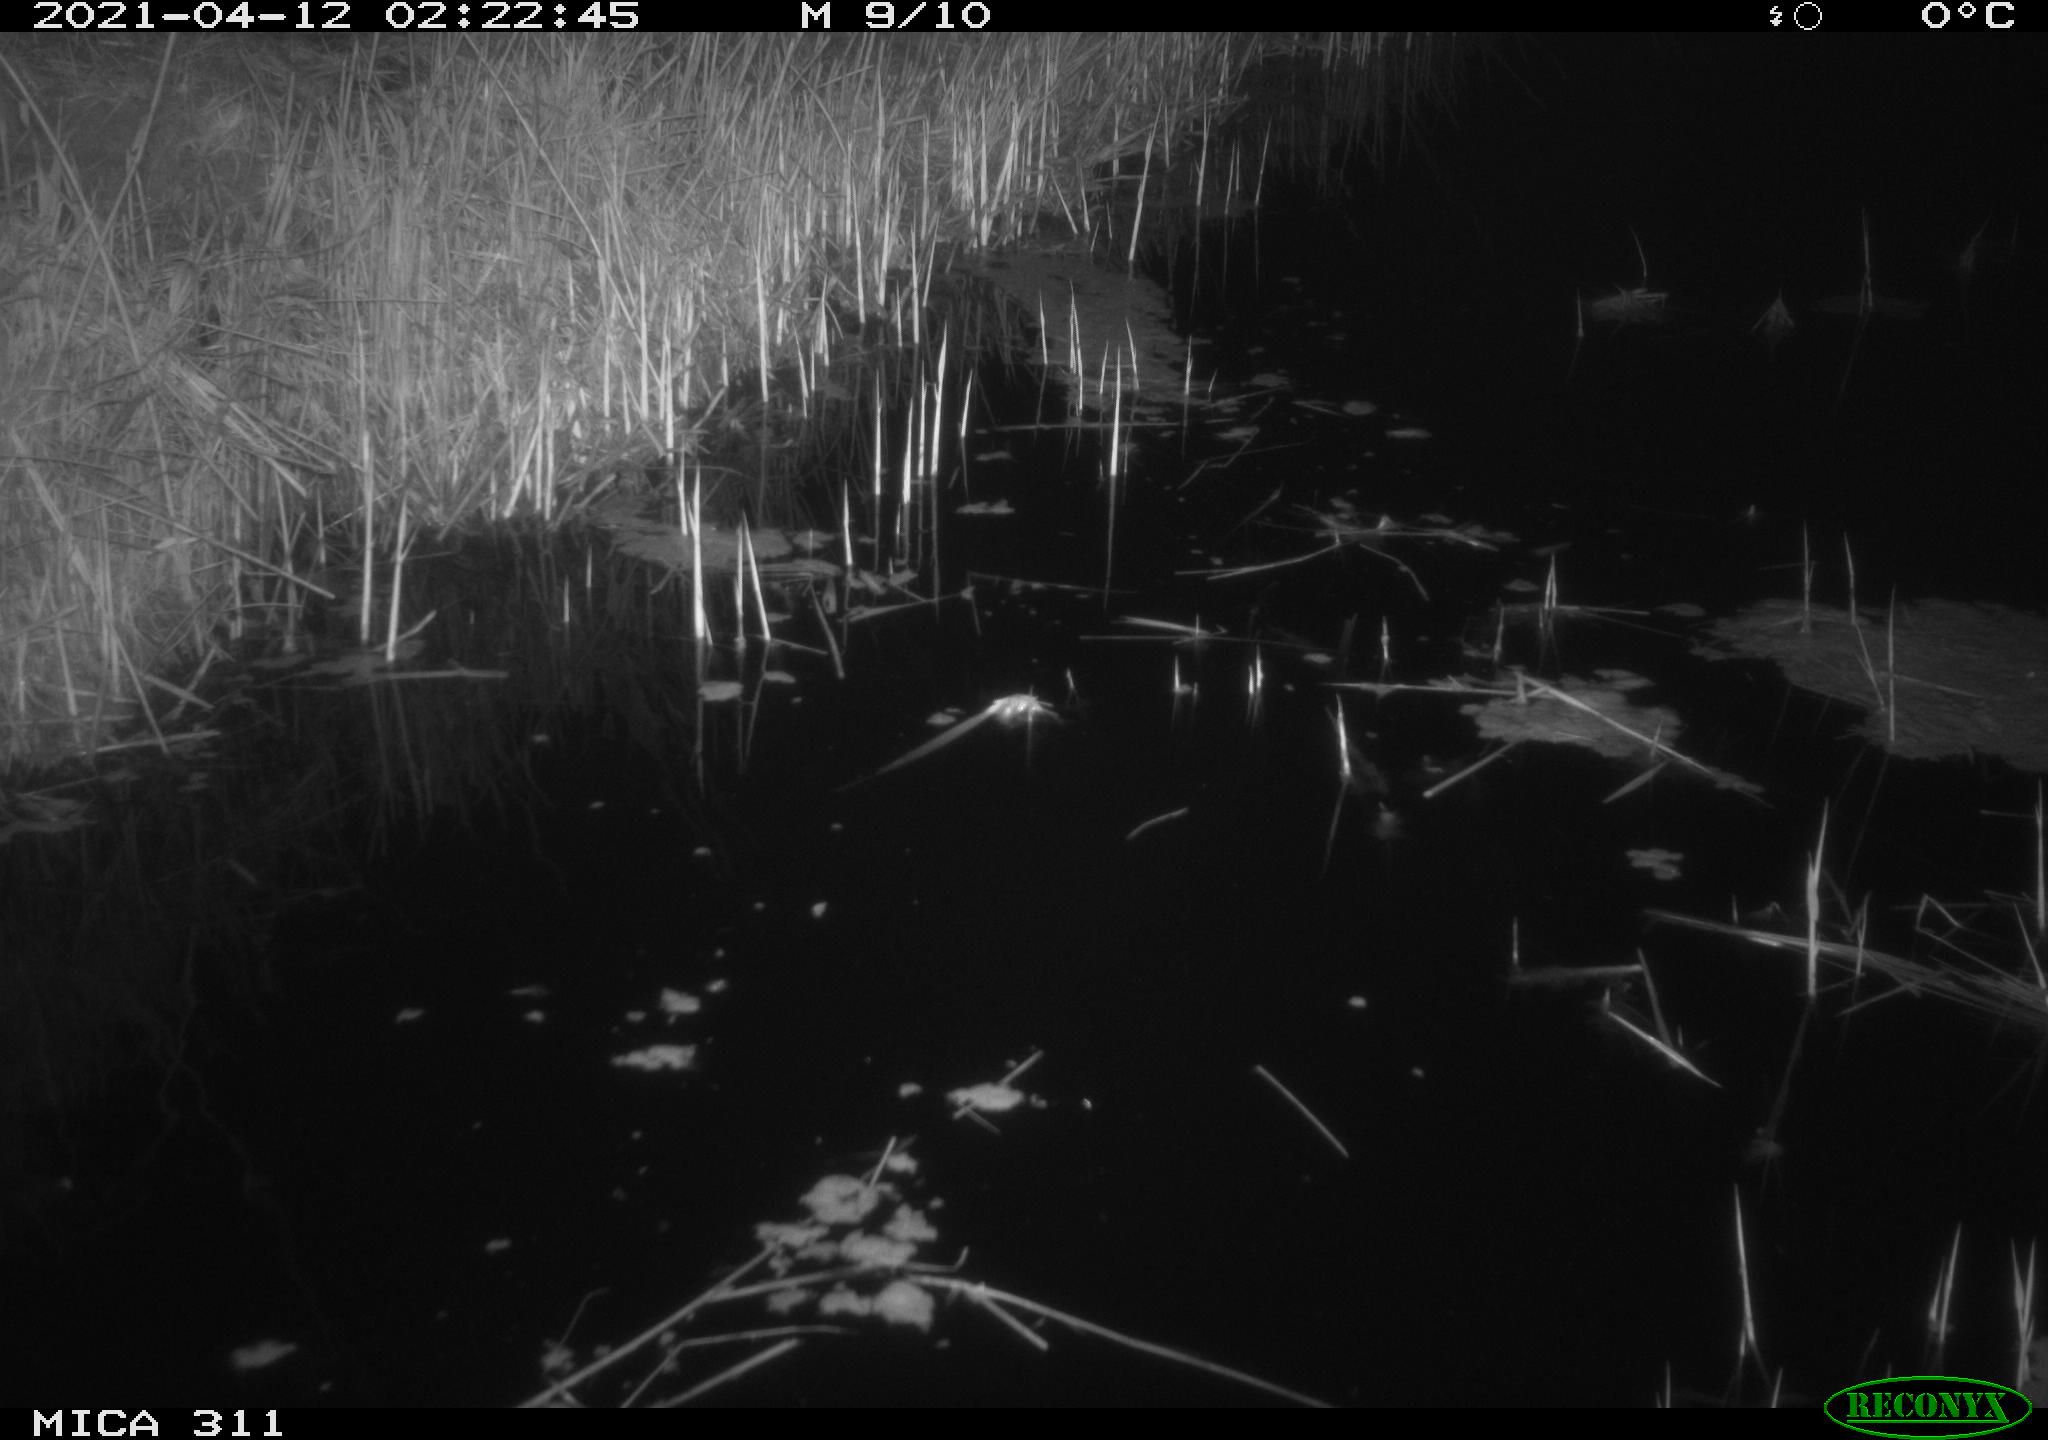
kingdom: Animalia
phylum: Chordata
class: Mammalia
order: Rodentia
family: Muridae
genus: Rattus
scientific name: Rattus norvegicus
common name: Brown rat
